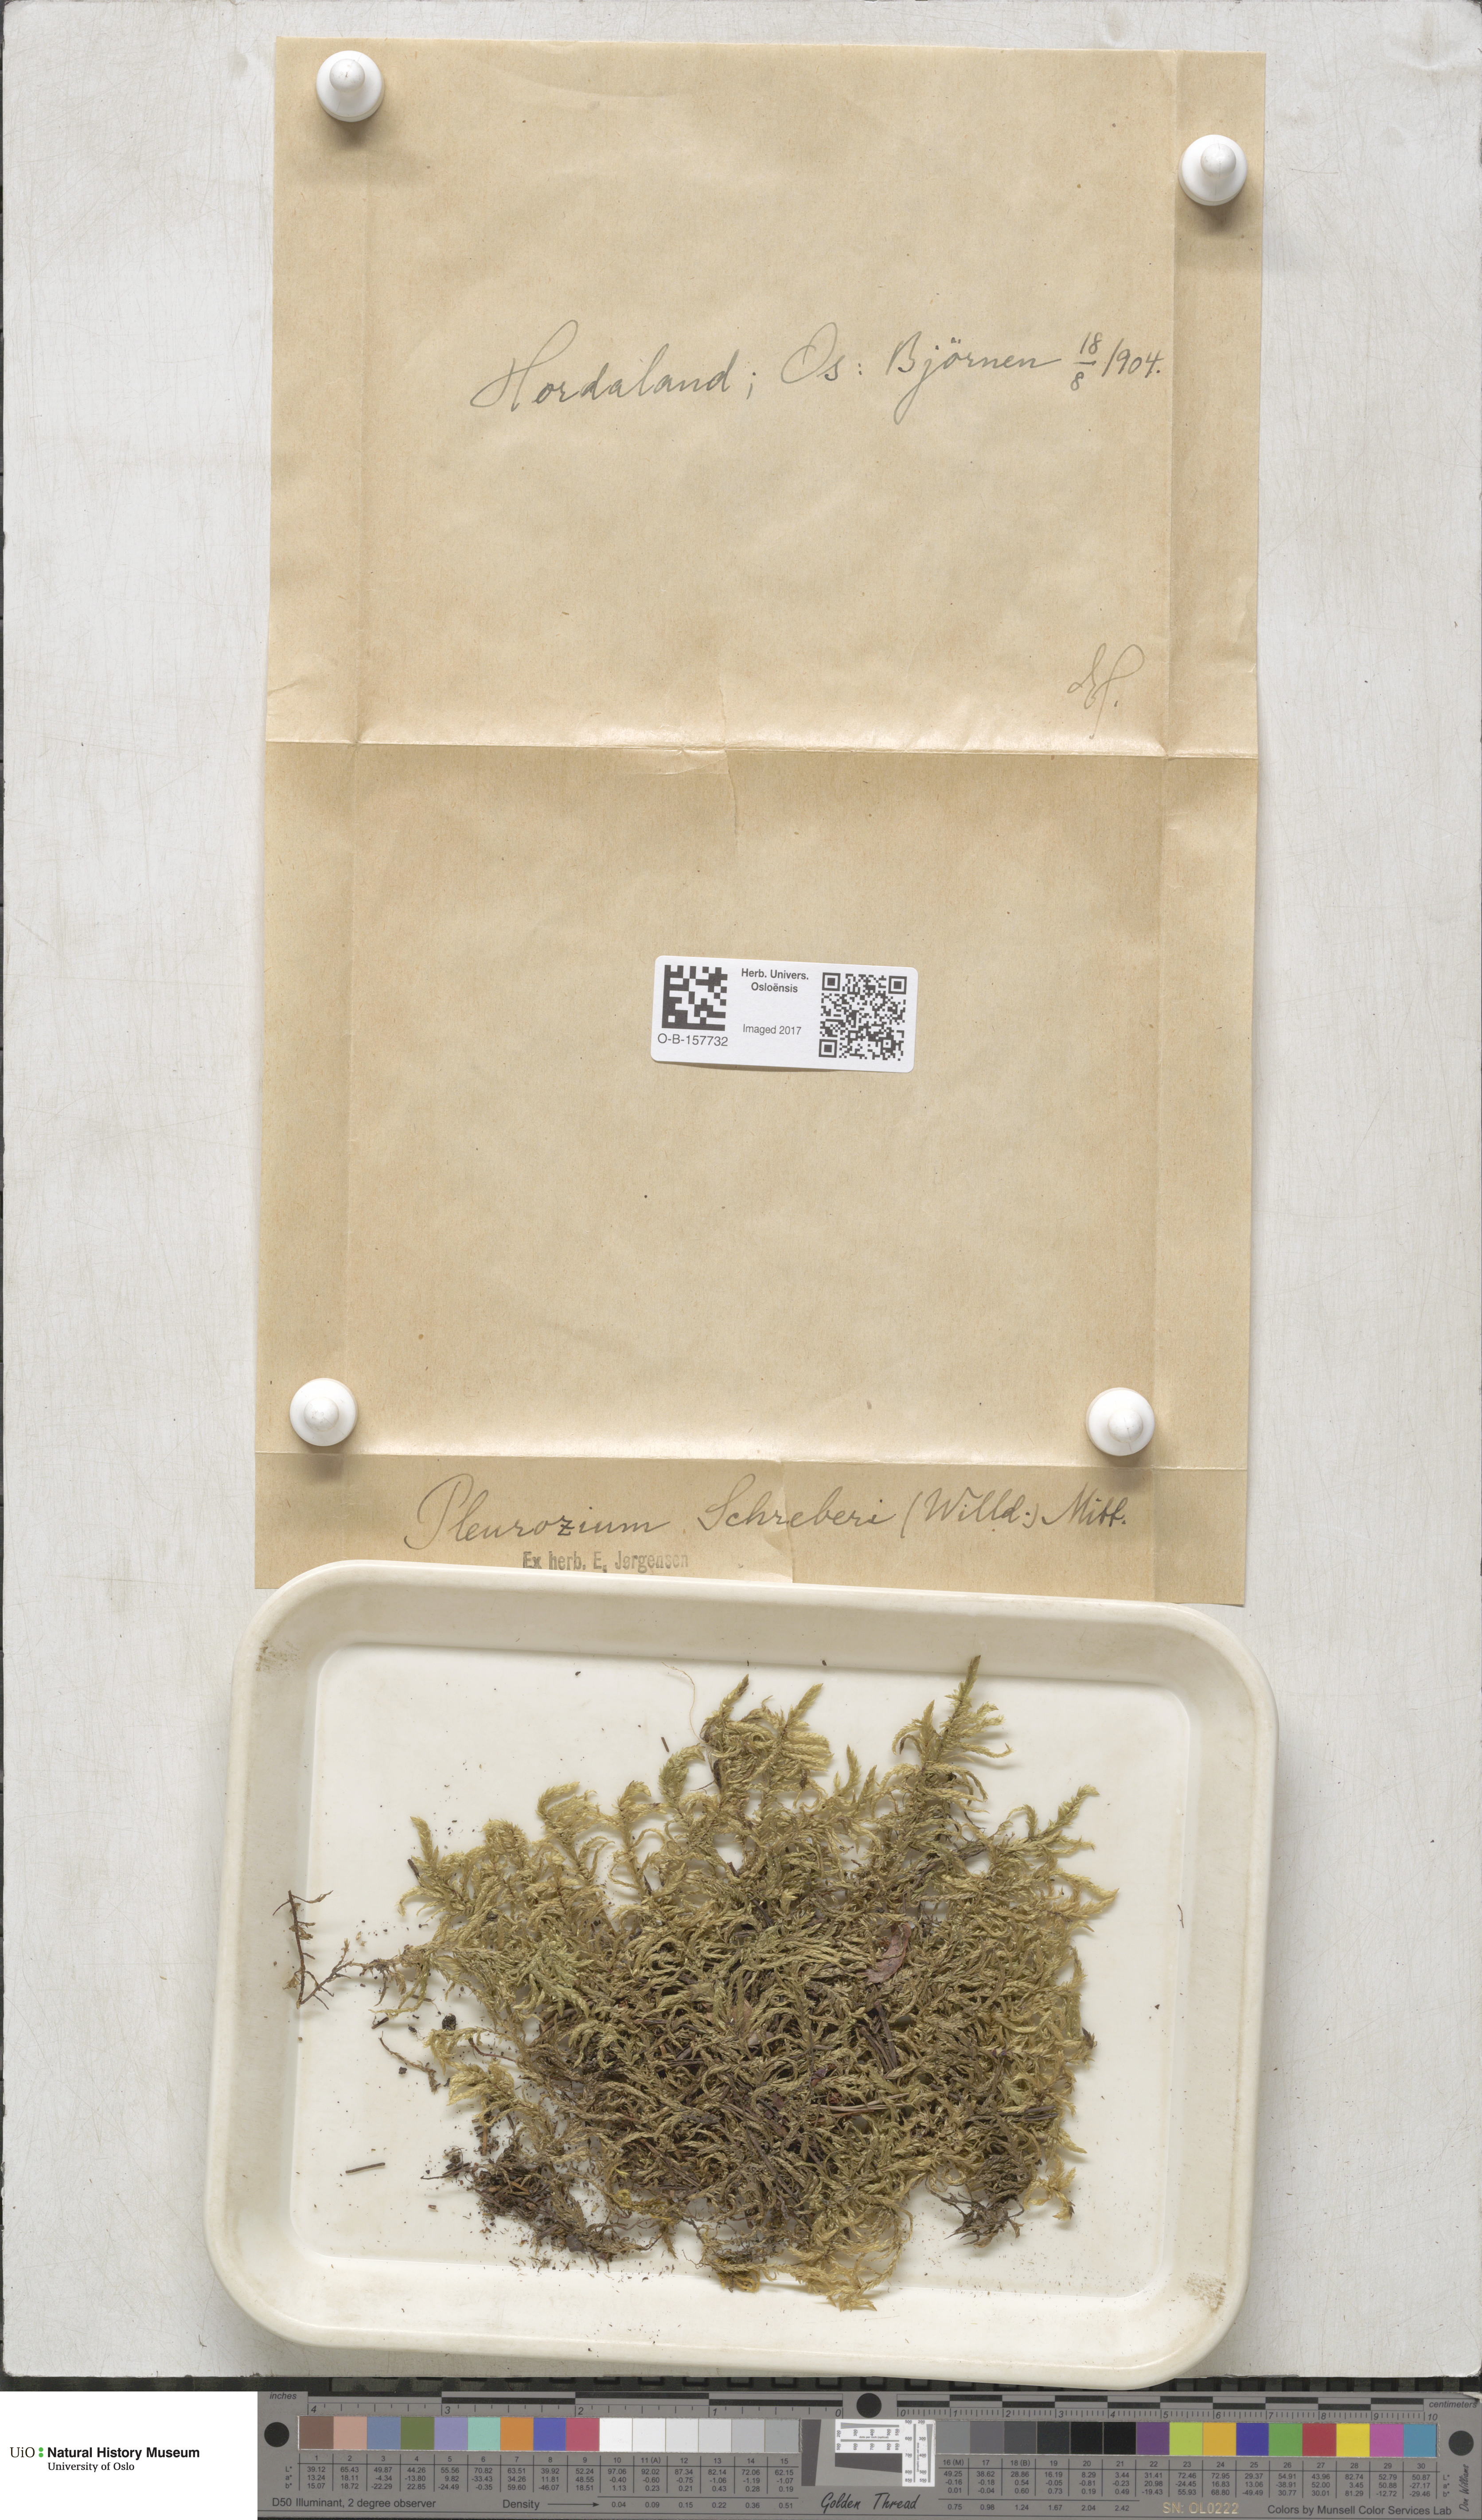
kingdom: Plantae
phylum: Bryophyta
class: Bryopsida
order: Hypnales
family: Hylocomiaceae
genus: Pleurozium
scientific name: Pleurozium schreberi
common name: Red-stemmed feather moss
